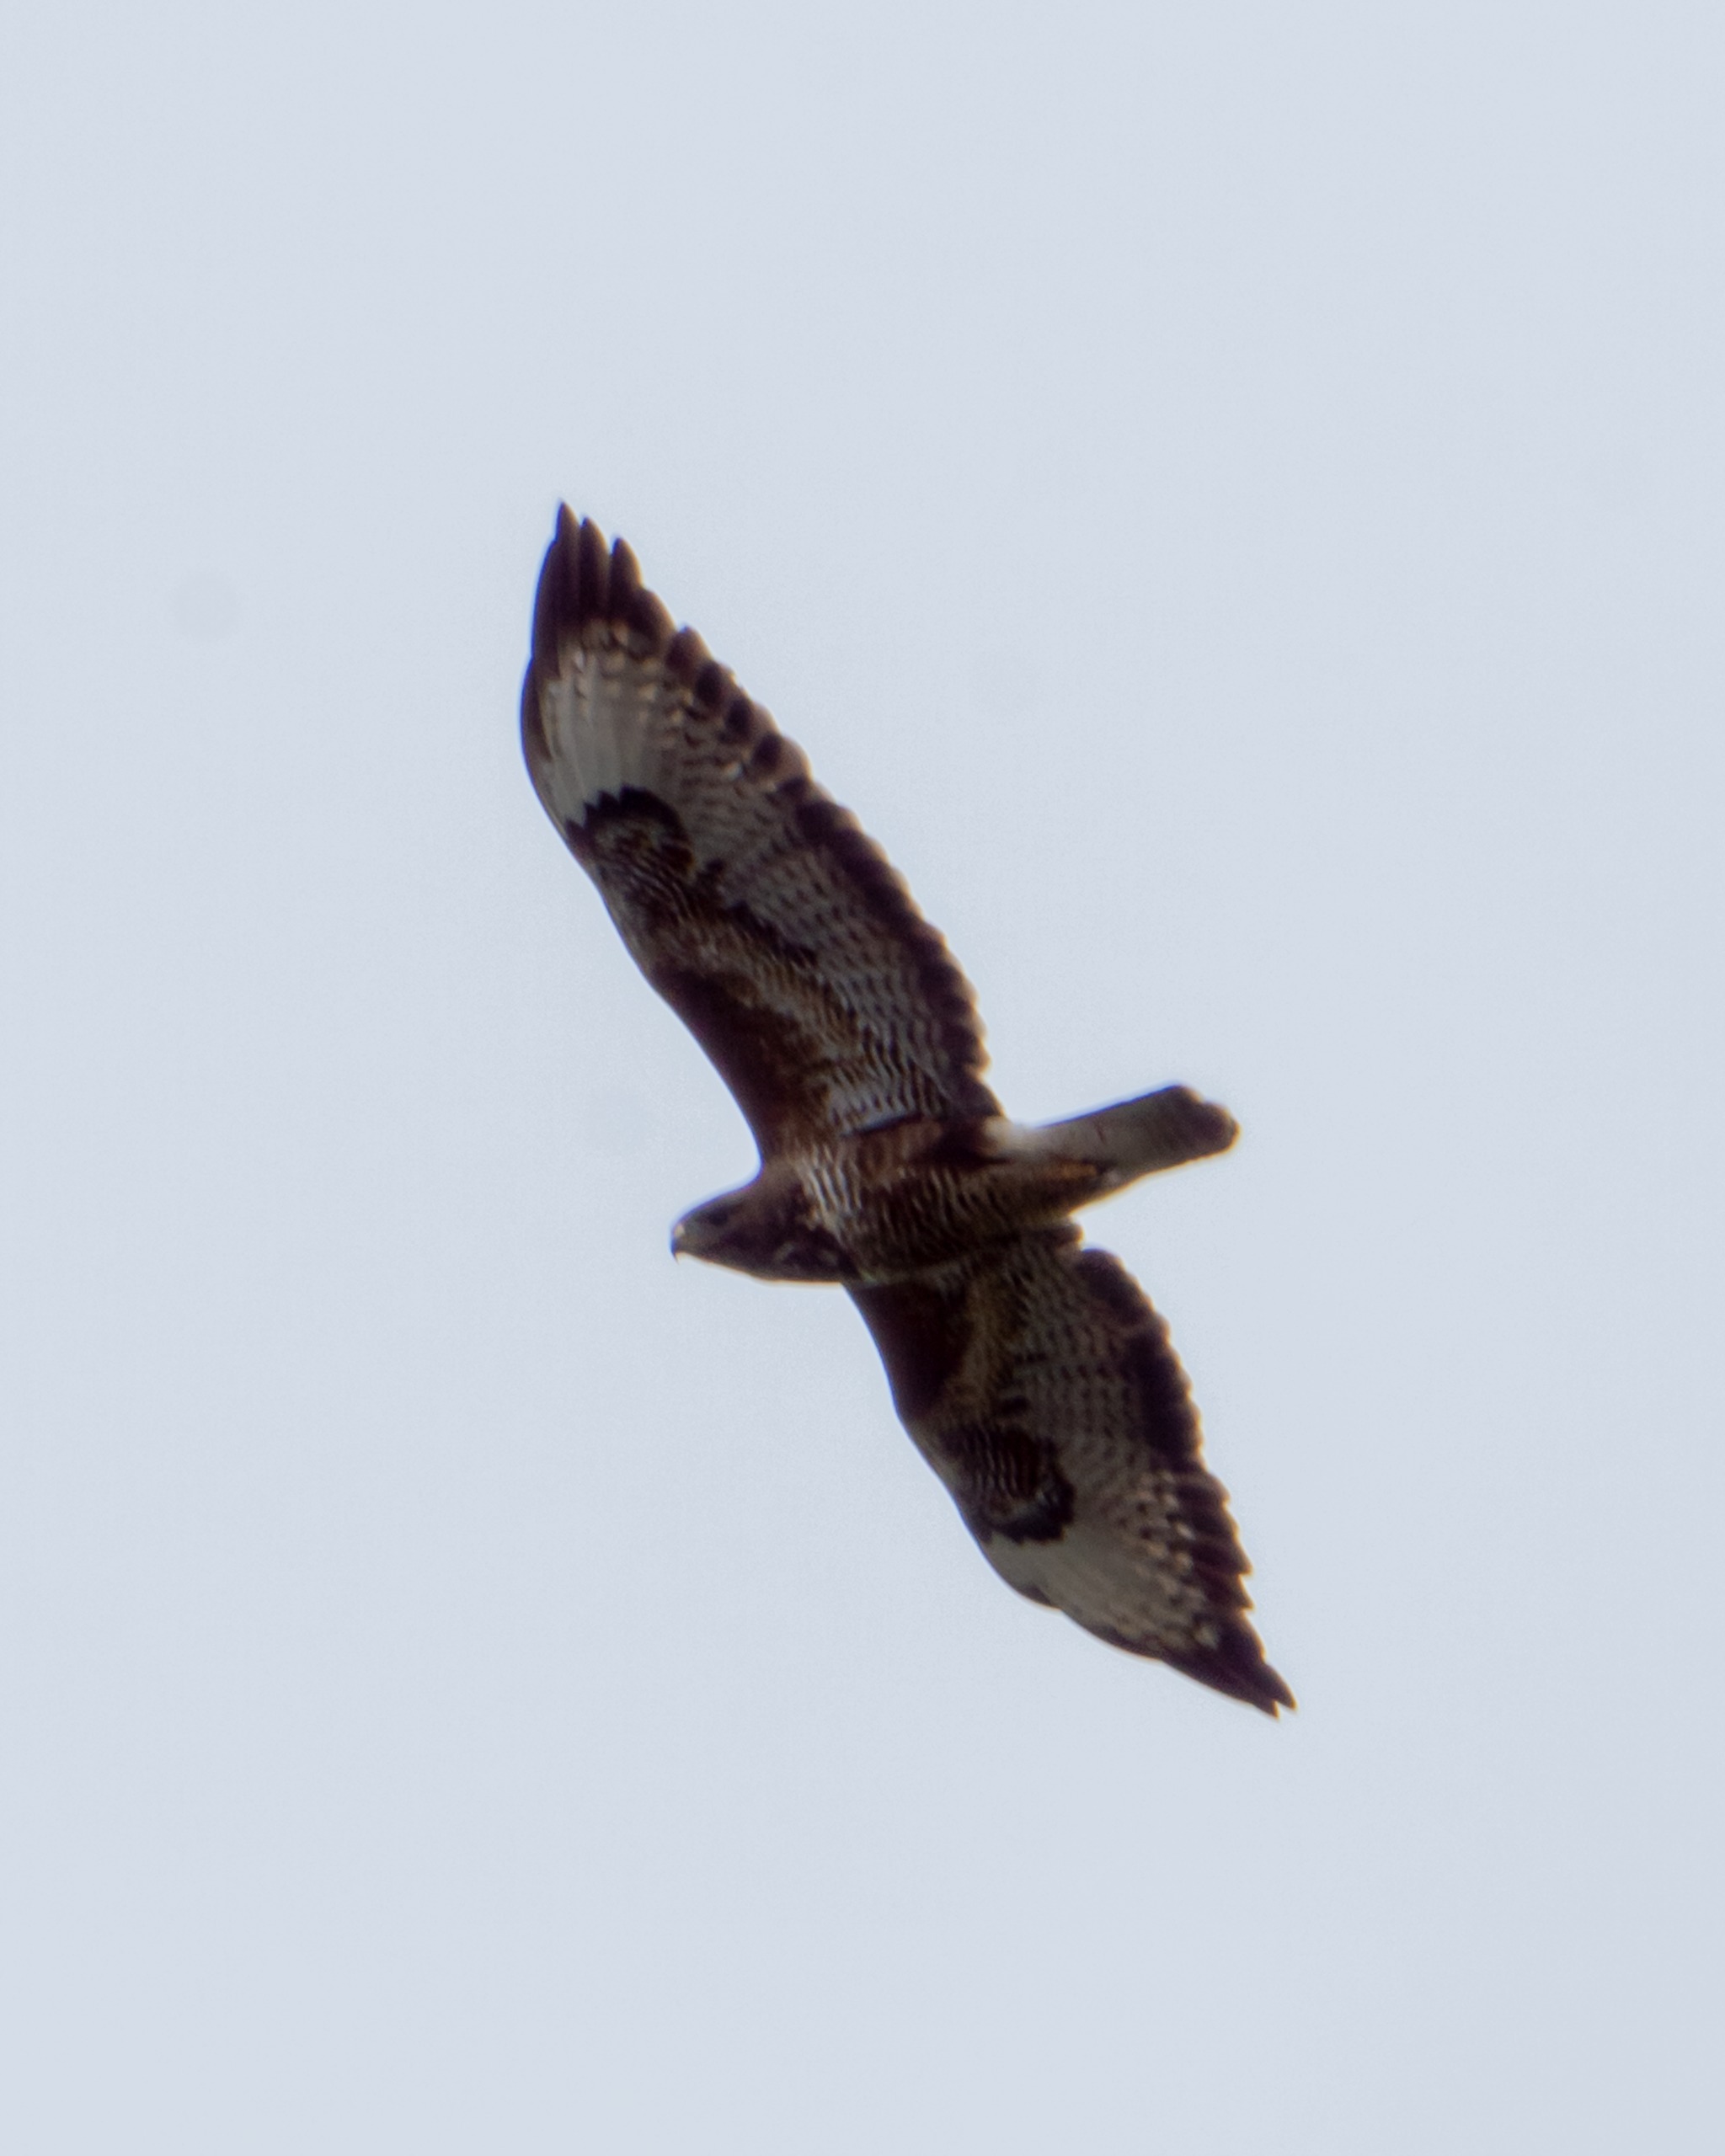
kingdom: Animalia
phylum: Chordata
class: Aves
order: Accipitriformes
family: Accipitridae
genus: Buteo
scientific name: Buteo buteo
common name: Musvåge
